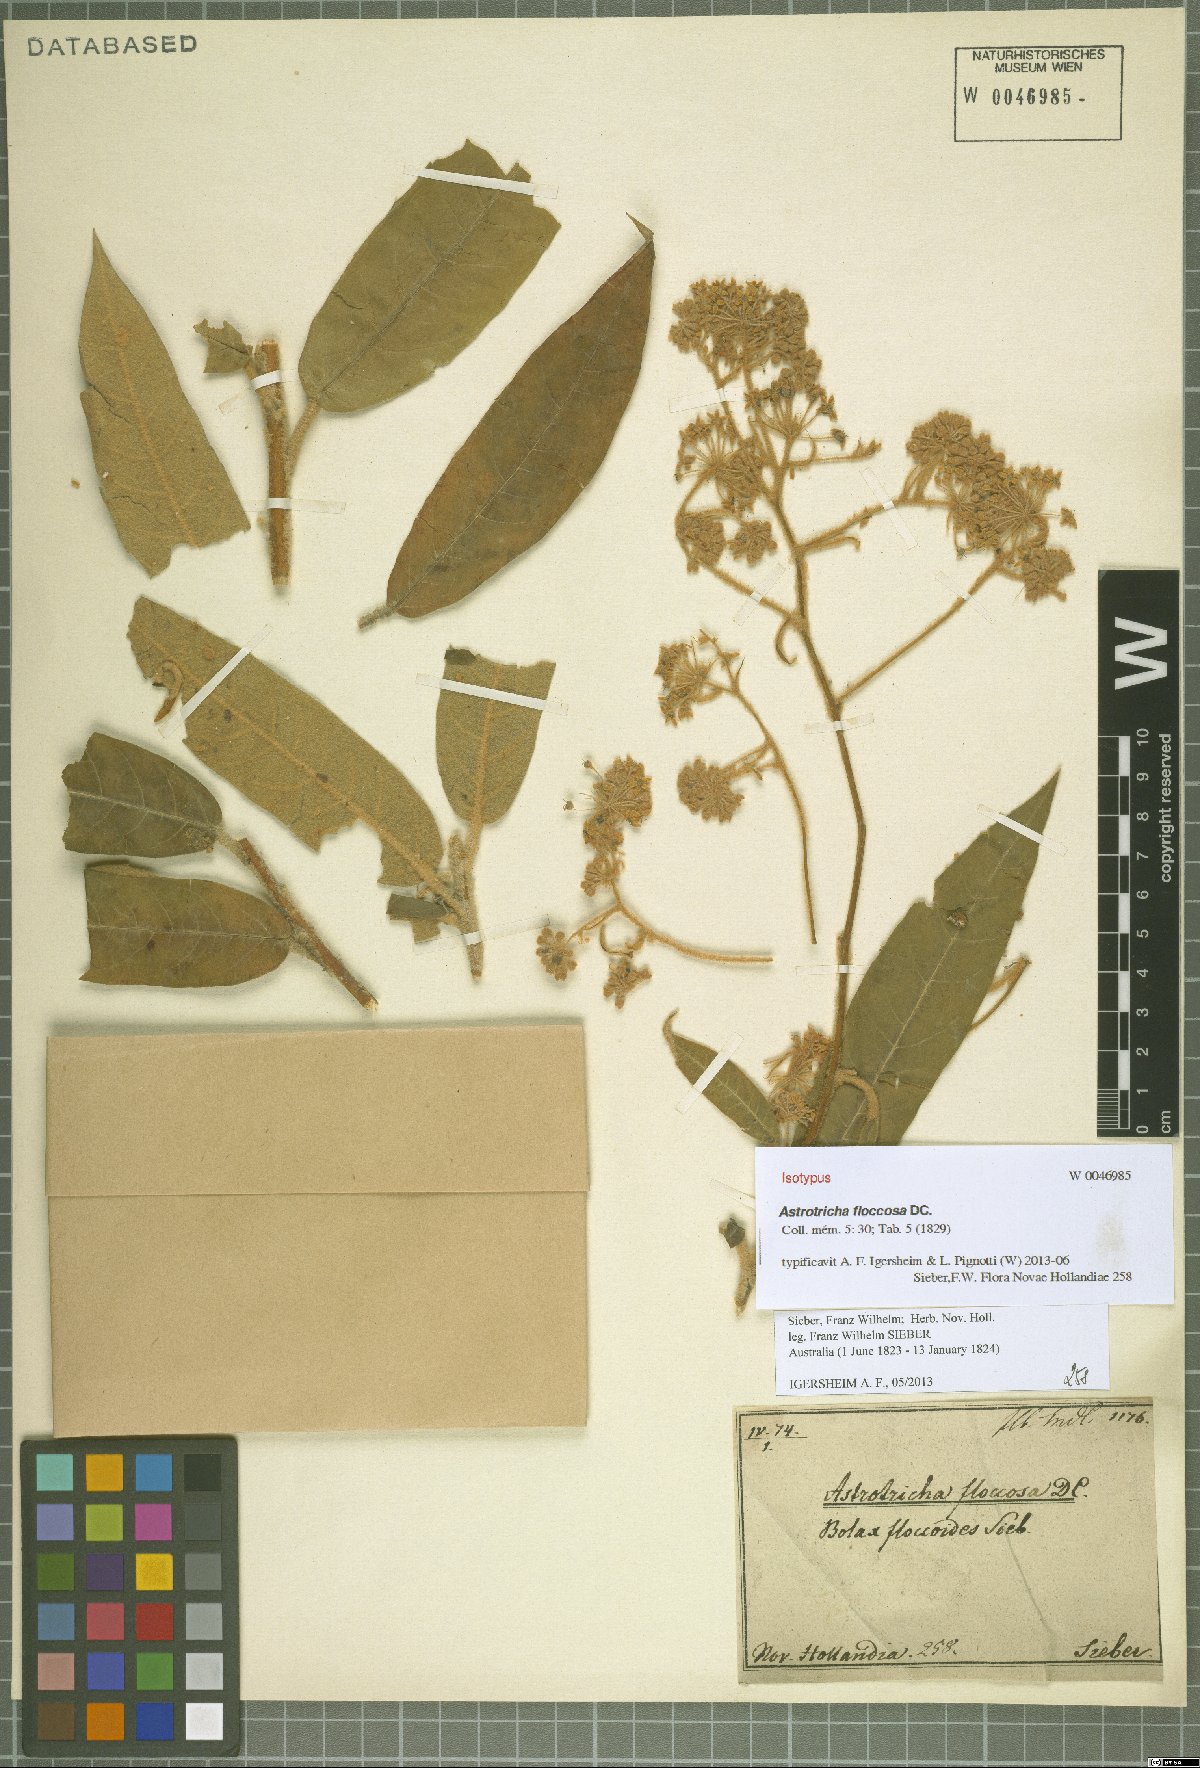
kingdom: Plantae
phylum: Tracheophyta
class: Magnoliopsida
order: Apiales
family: Araliaceae
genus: Astrotricha
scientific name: Astrotricha floccosa
